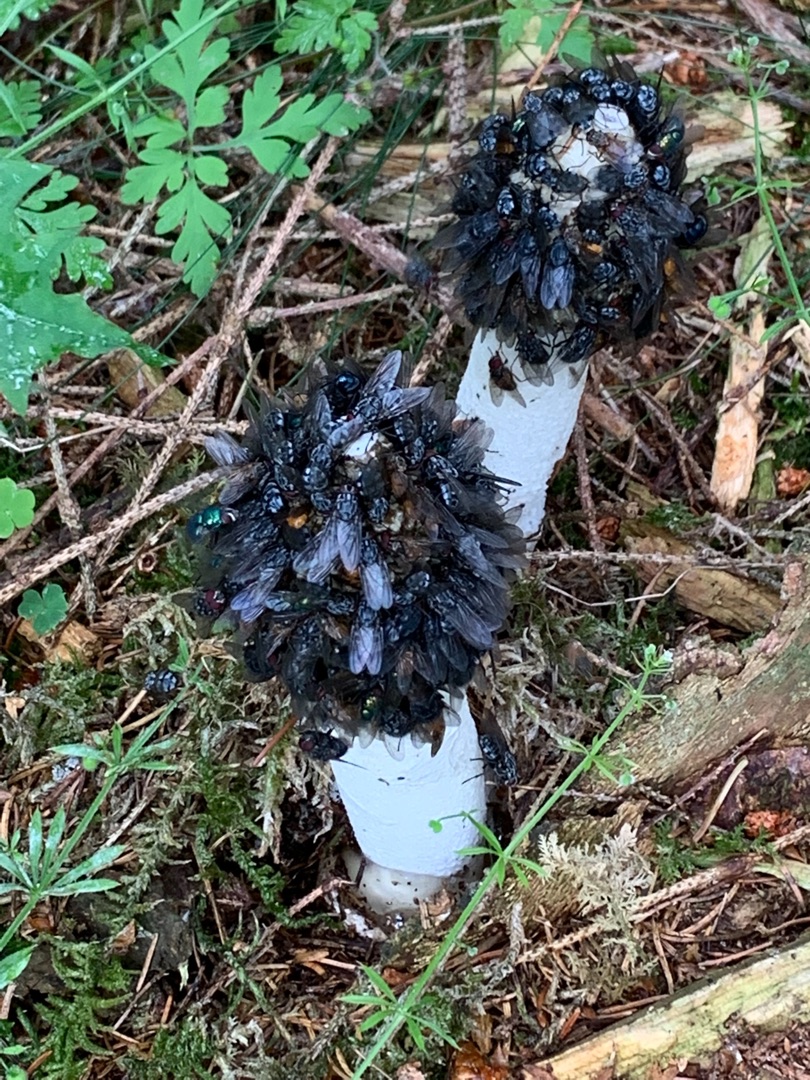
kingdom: Fungi
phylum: Basidiomycota
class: Agaricomycetes
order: Phallales
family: Phallaceae
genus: Phallus
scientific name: Phallus impudicus
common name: Almindelig stinksvamp
